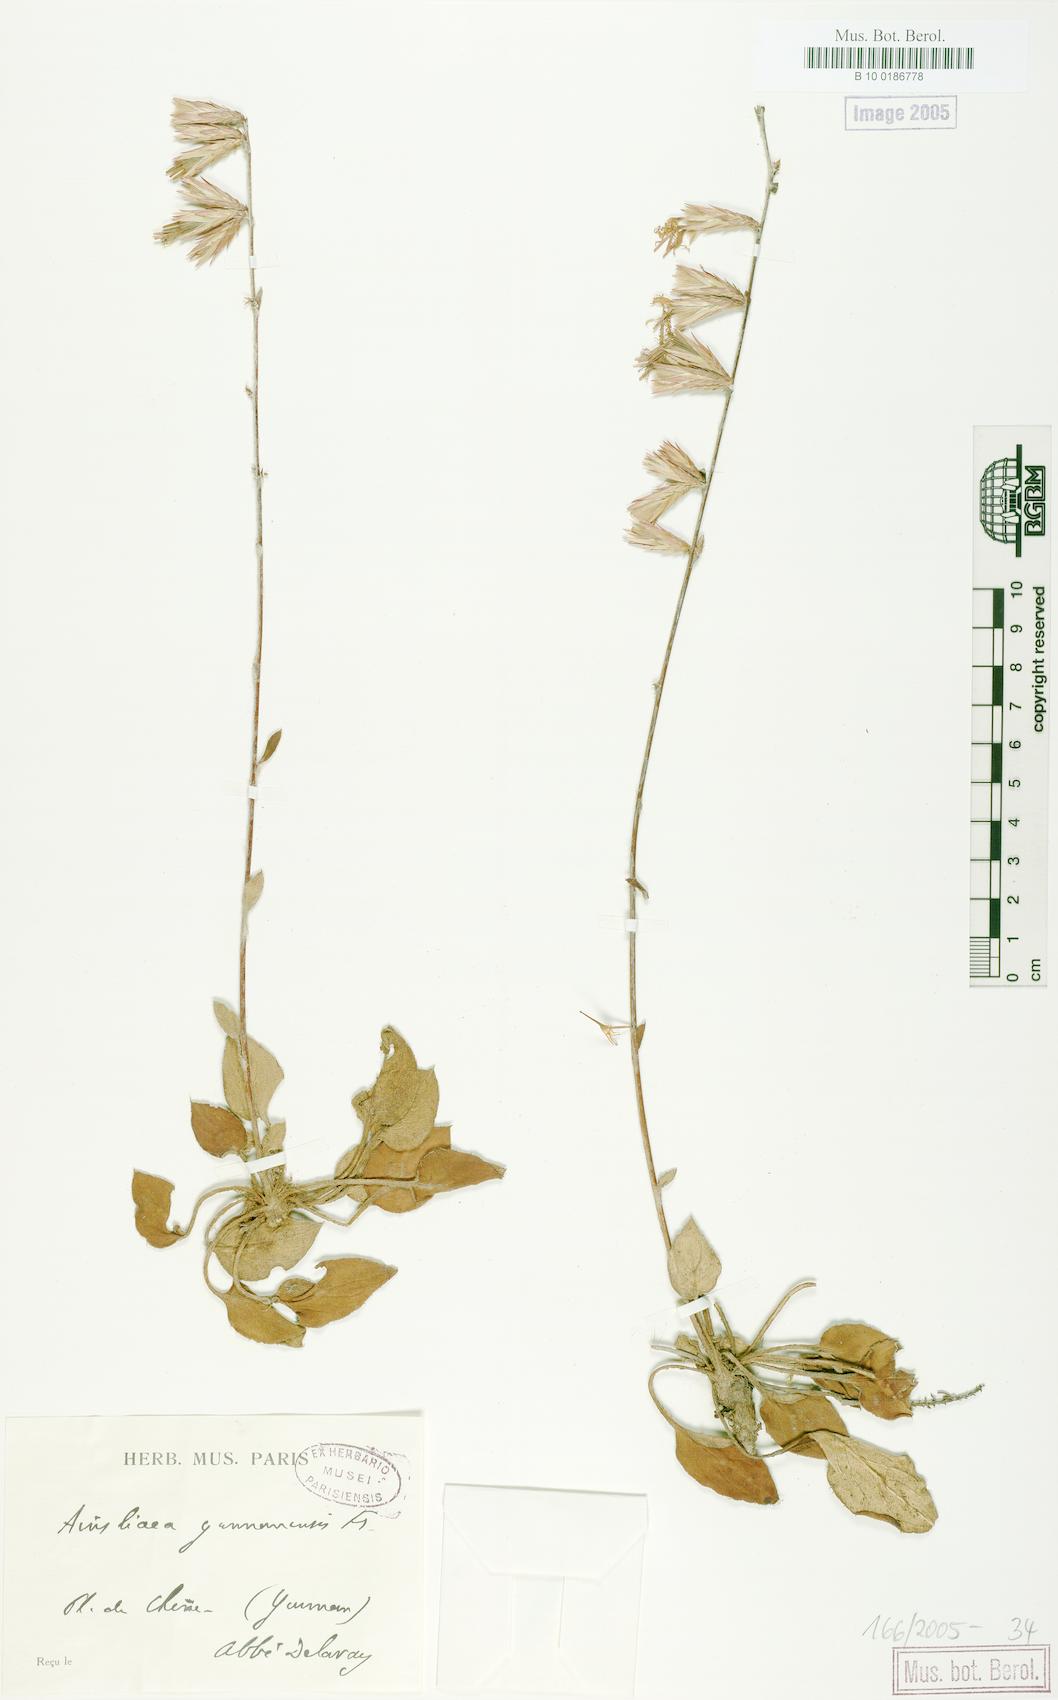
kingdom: Plantae
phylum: Tracheophyta
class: Magnoliopsida
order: Asterales
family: Asteraceae
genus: Ainsliaea
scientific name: Ainsliaea yunnanensis
